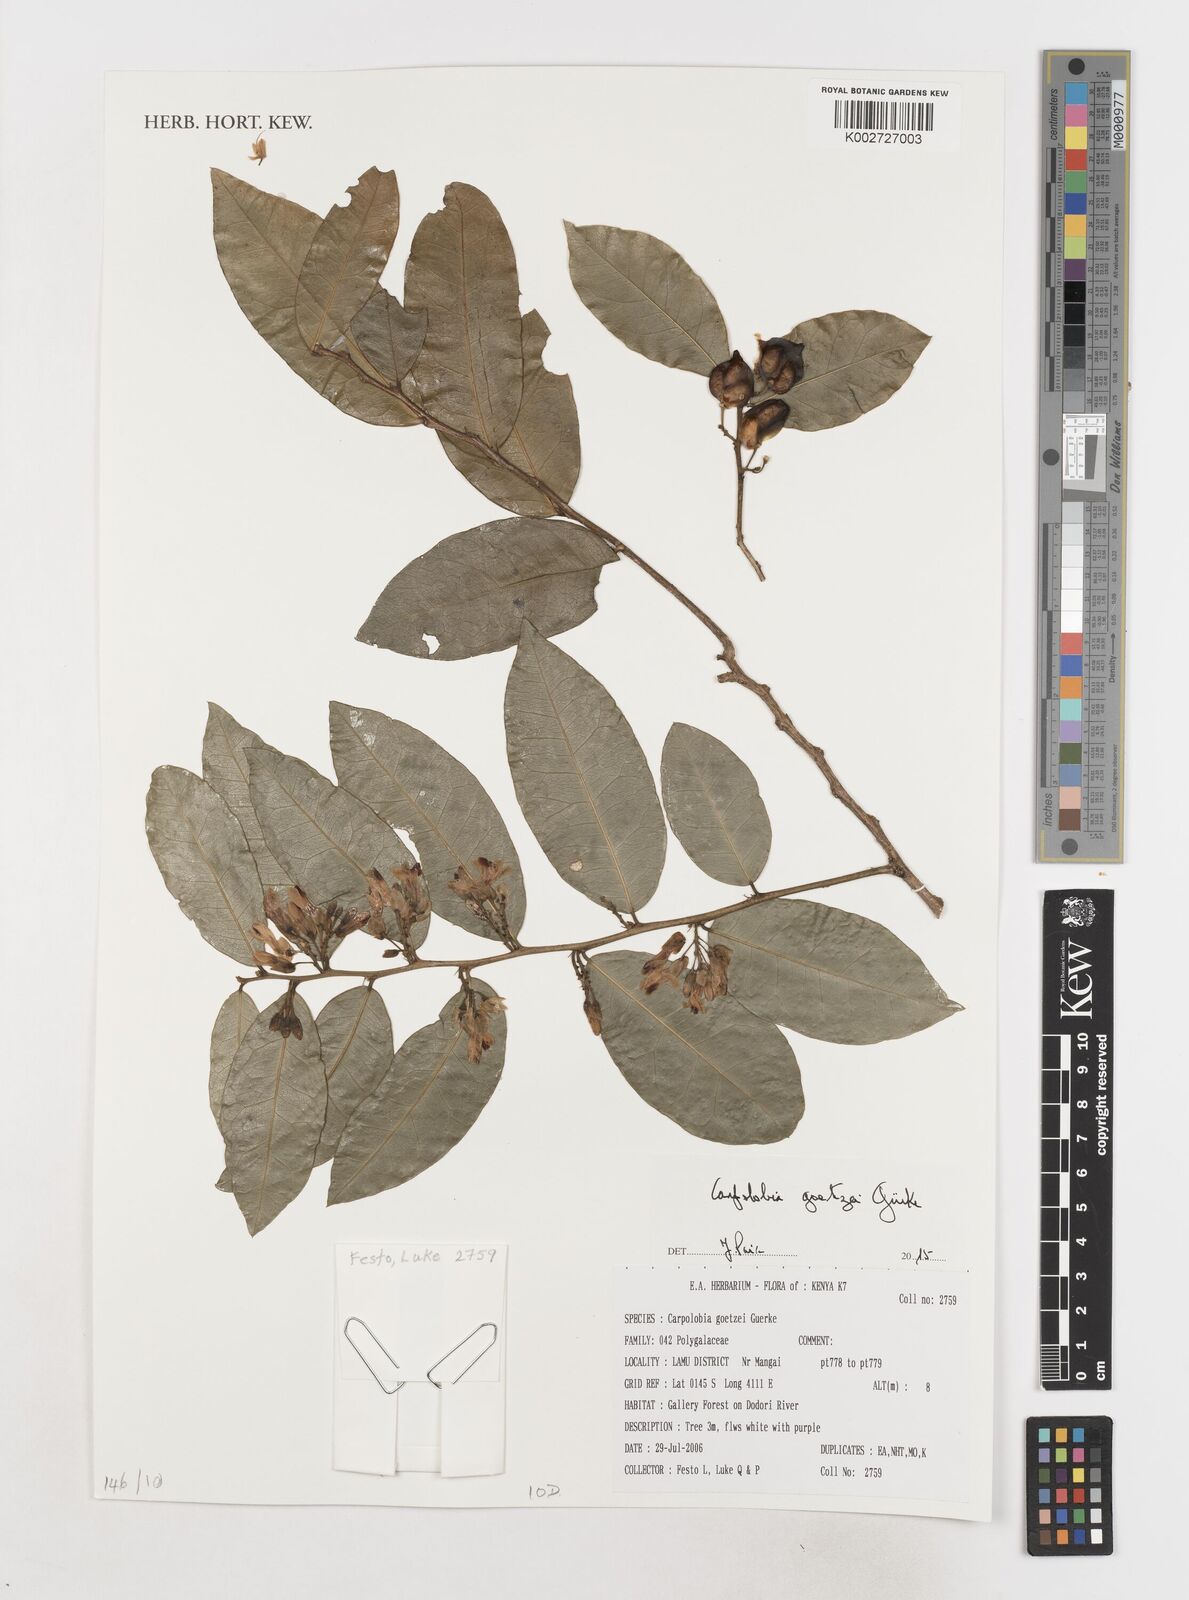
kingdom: Plantae
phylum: Tracheophyta
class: Magnoliopsida
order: Fabales
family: Polygalaceae
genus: Carpolobia
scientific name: Carpolobia goetzei
